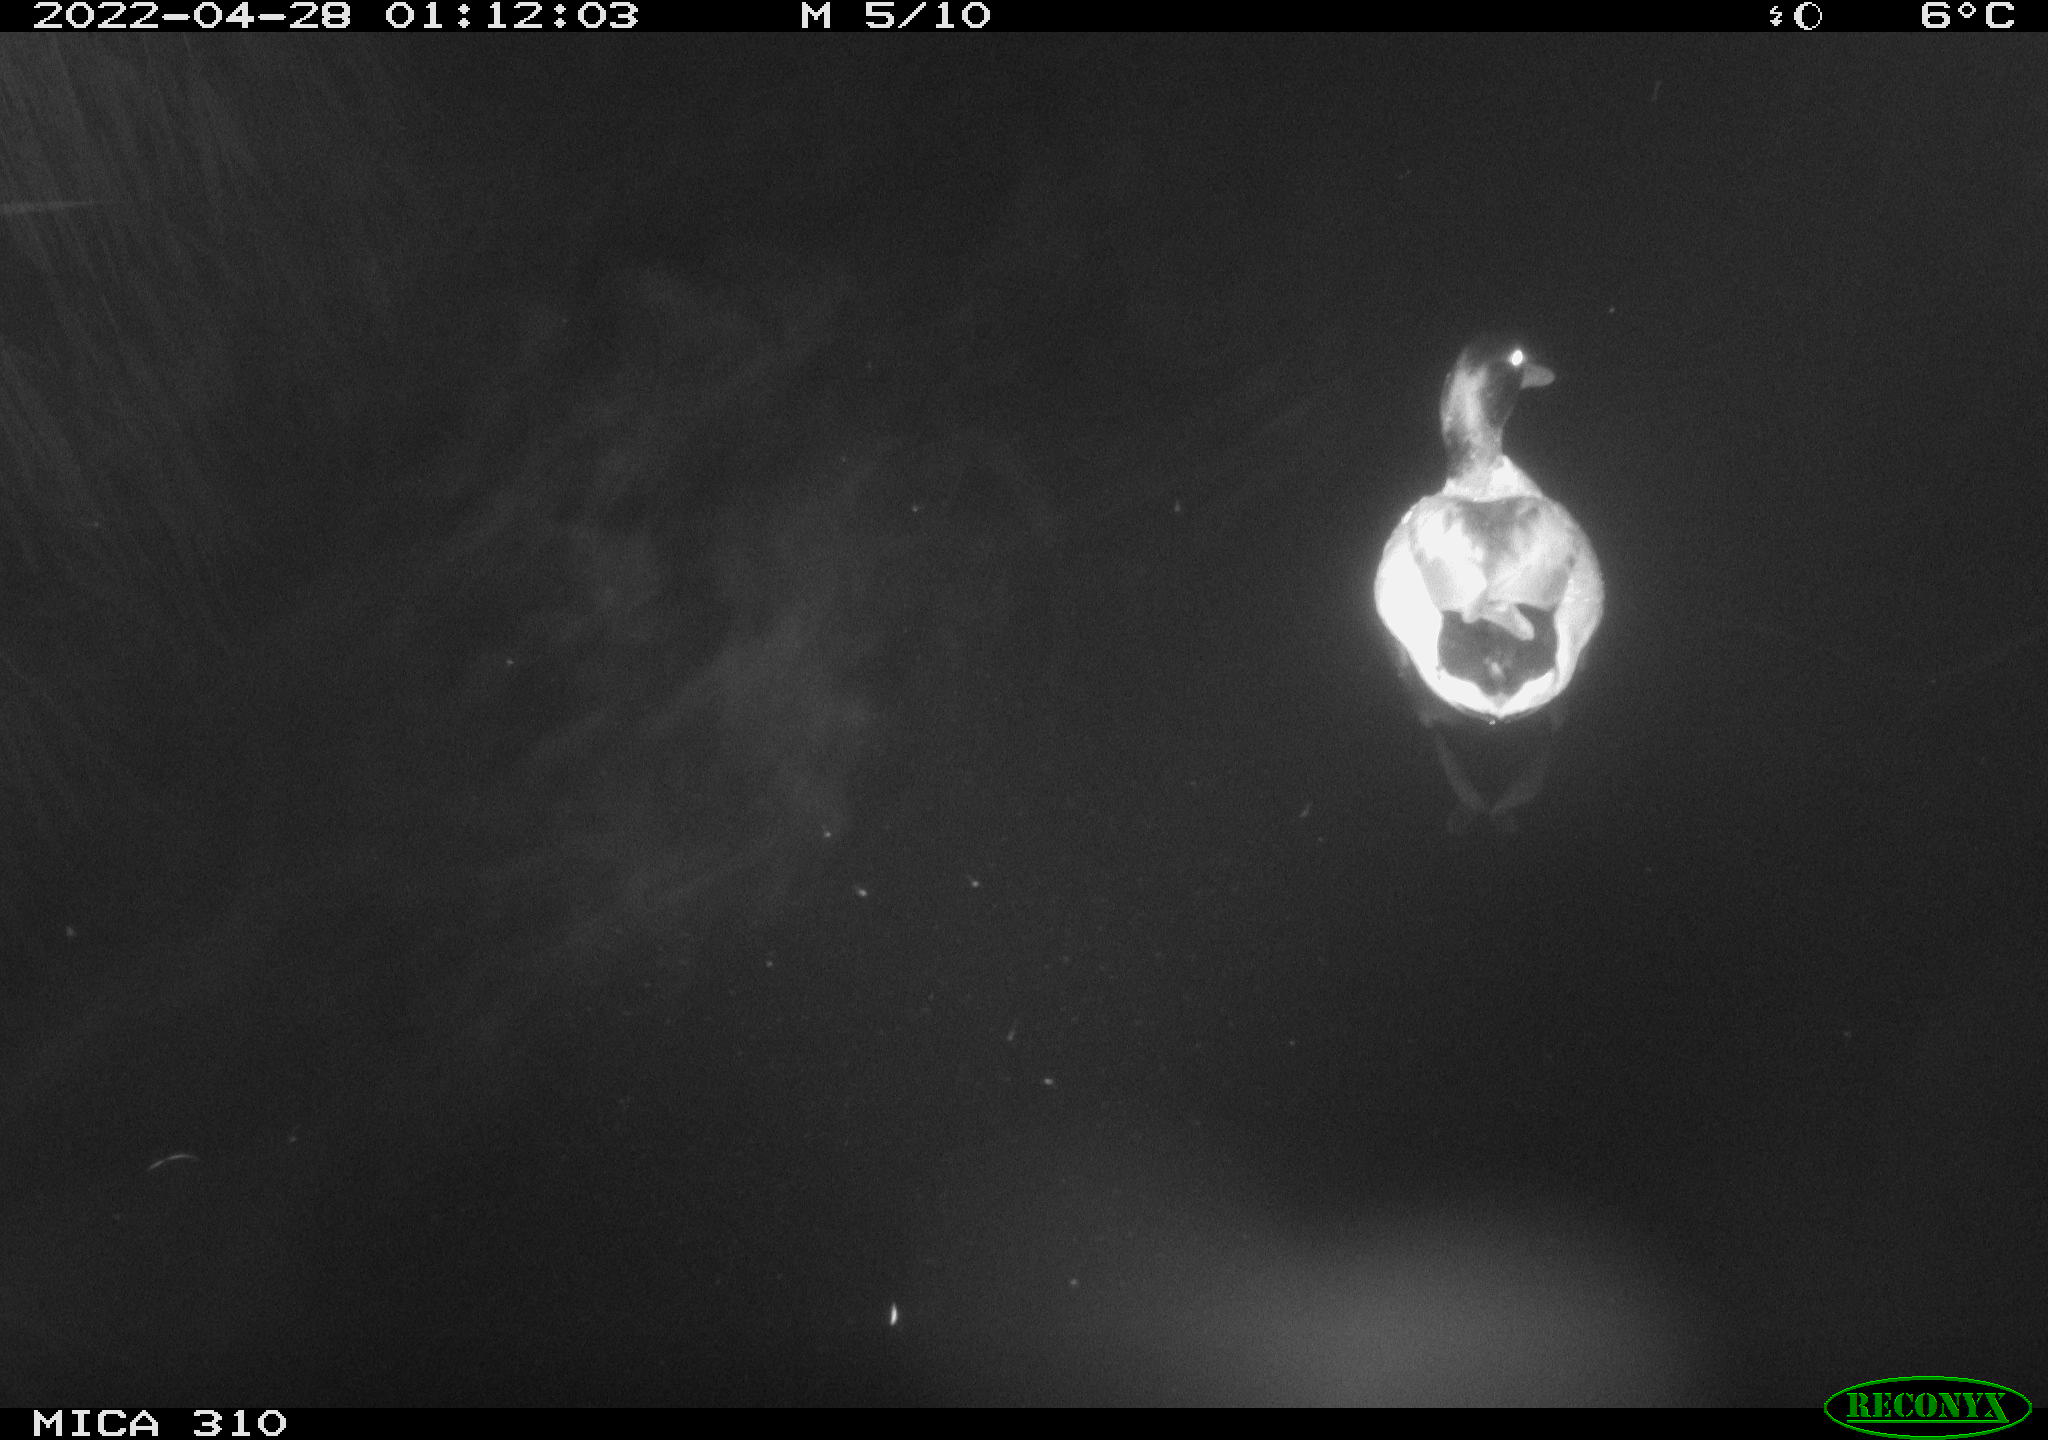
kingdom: Animalia
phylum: Chordata
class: Aves
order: Anseriformes
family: Anatidae
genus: Anas
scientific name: Anas platyrhynchos
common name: Mallard
